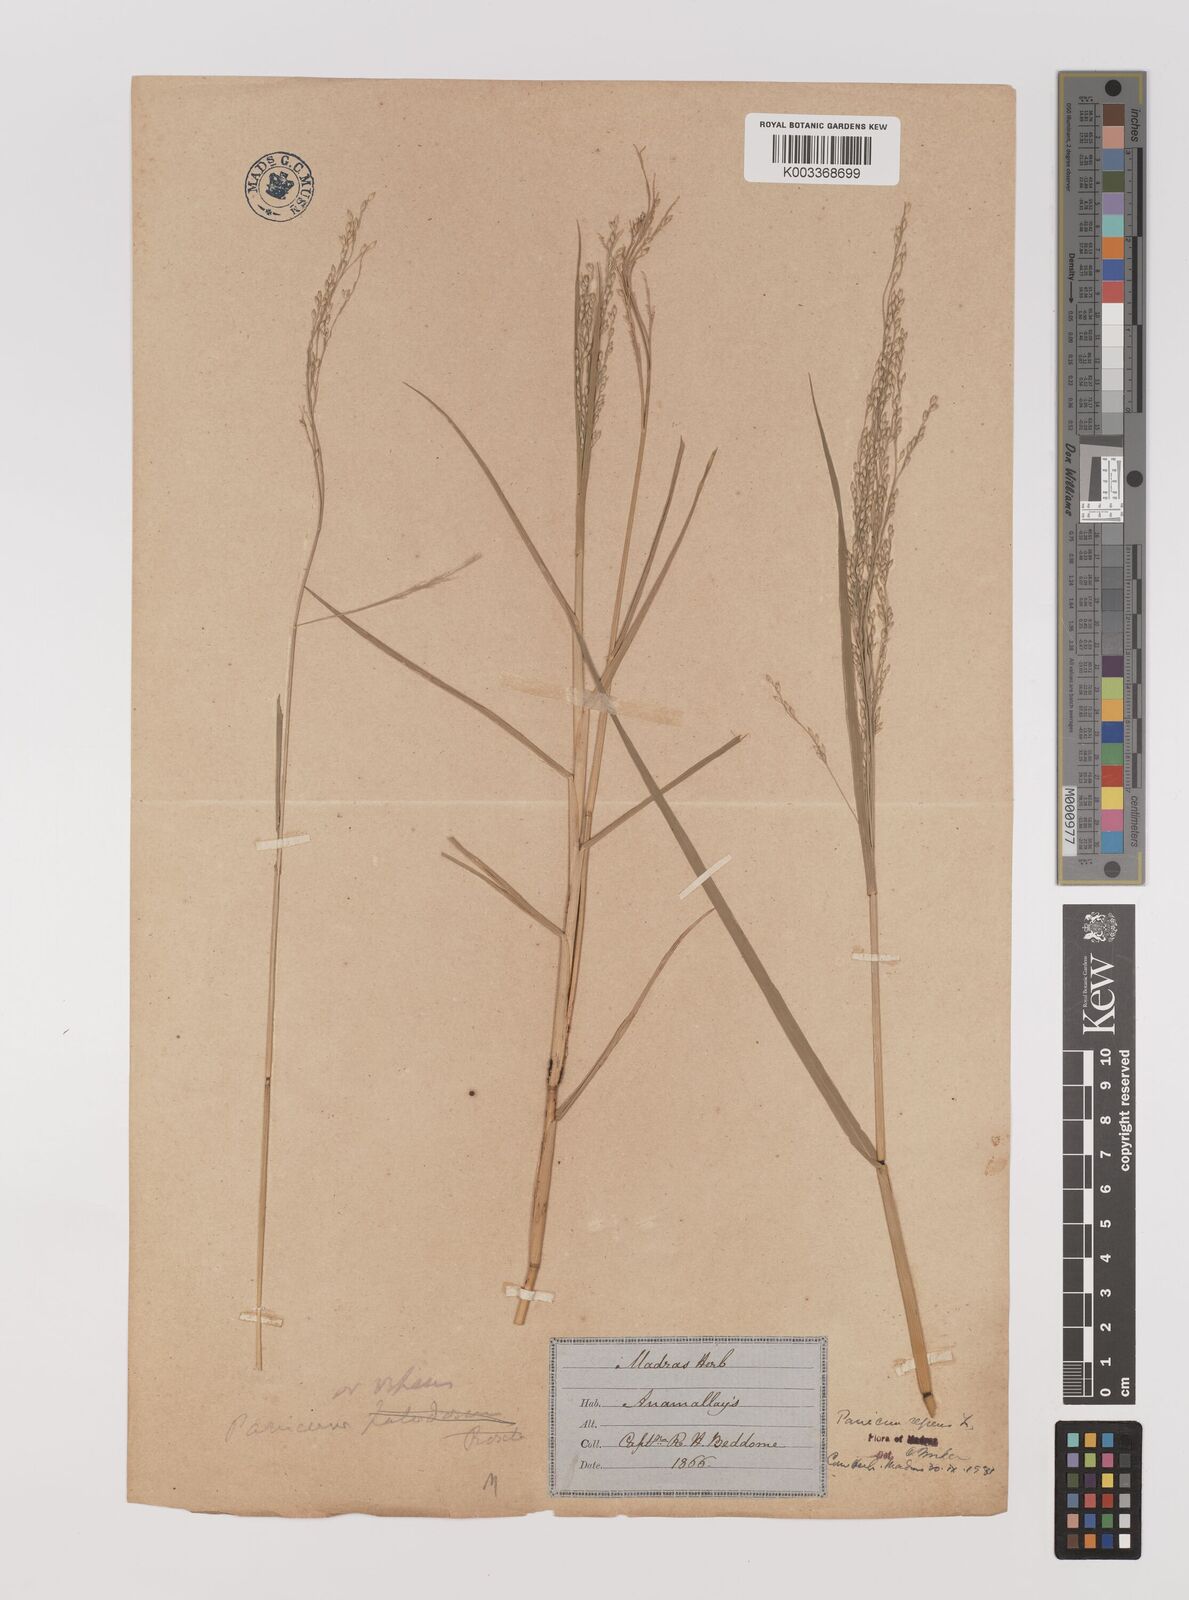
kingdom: Plantae
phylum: Tracheophyta
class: Liliopsida
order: Poales
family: Poaceae
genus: Panicum
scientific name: Panicum repens
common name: Torpedo grass
